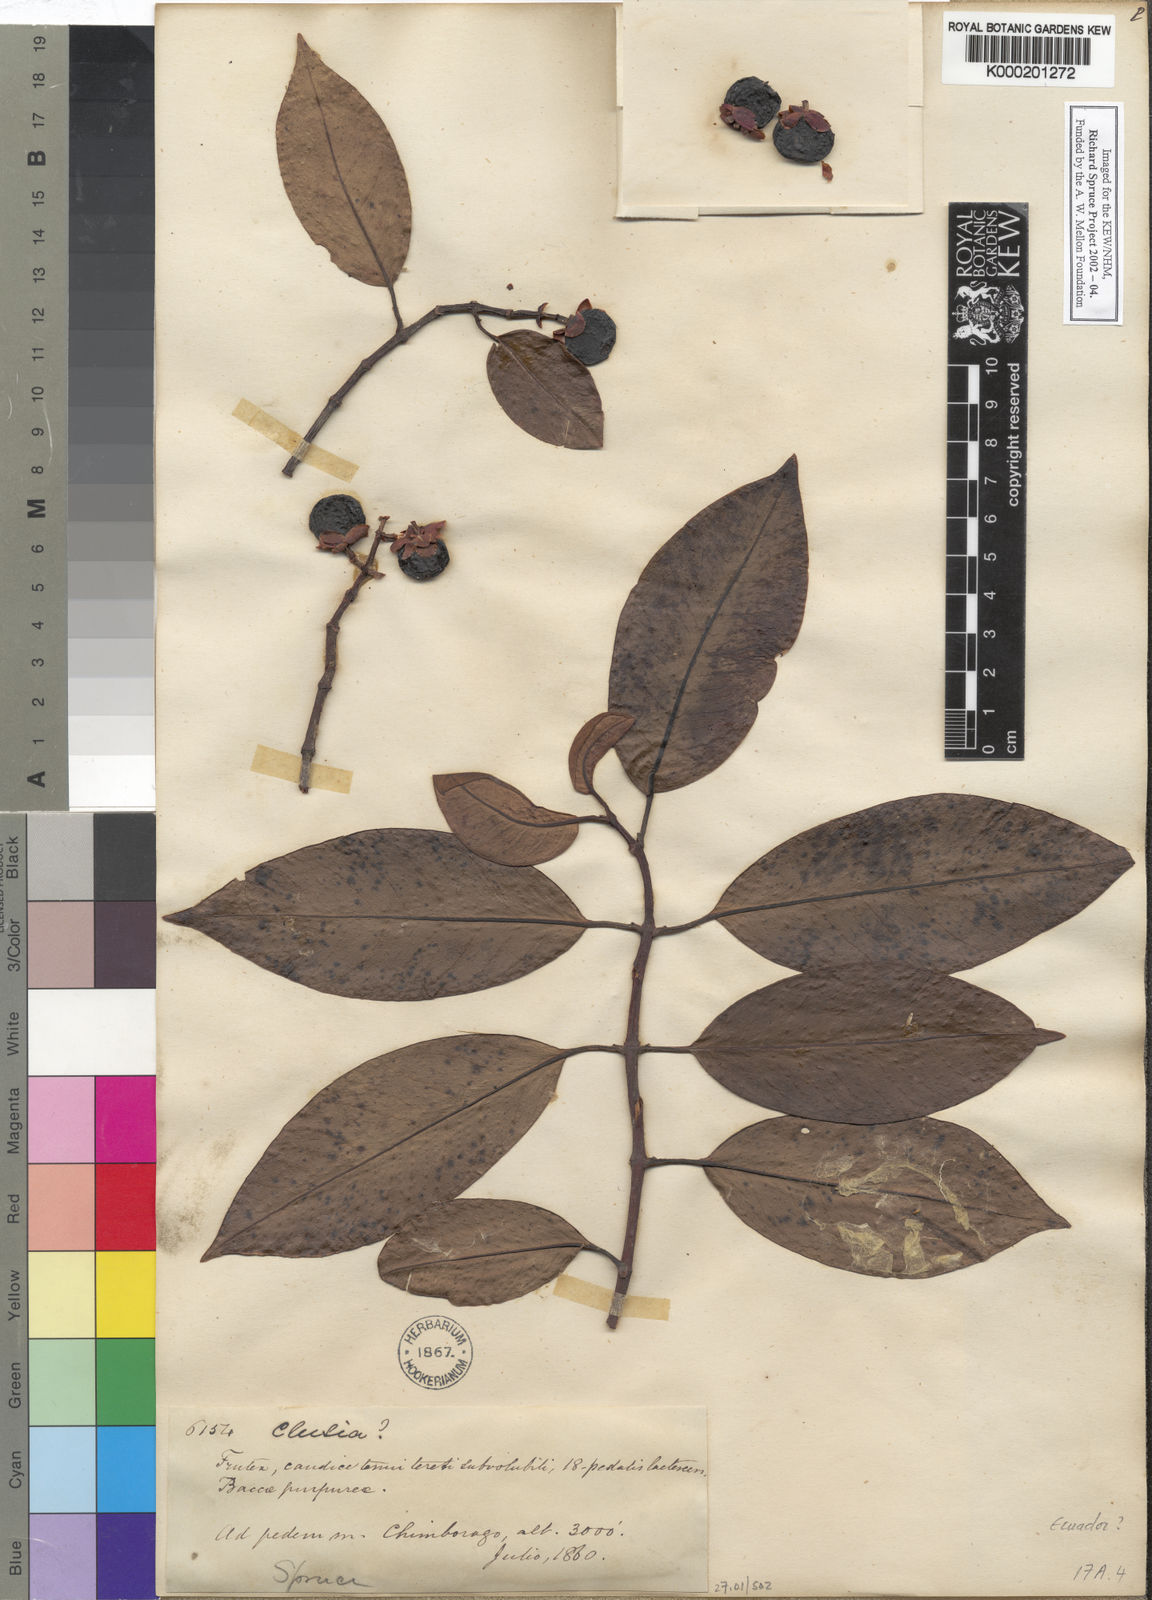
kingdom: Plantae
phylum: Tracheophyta
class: Magnoliopsida
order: Malpighiales
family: Clusiaceae
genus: Clusia
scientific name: Clusia
